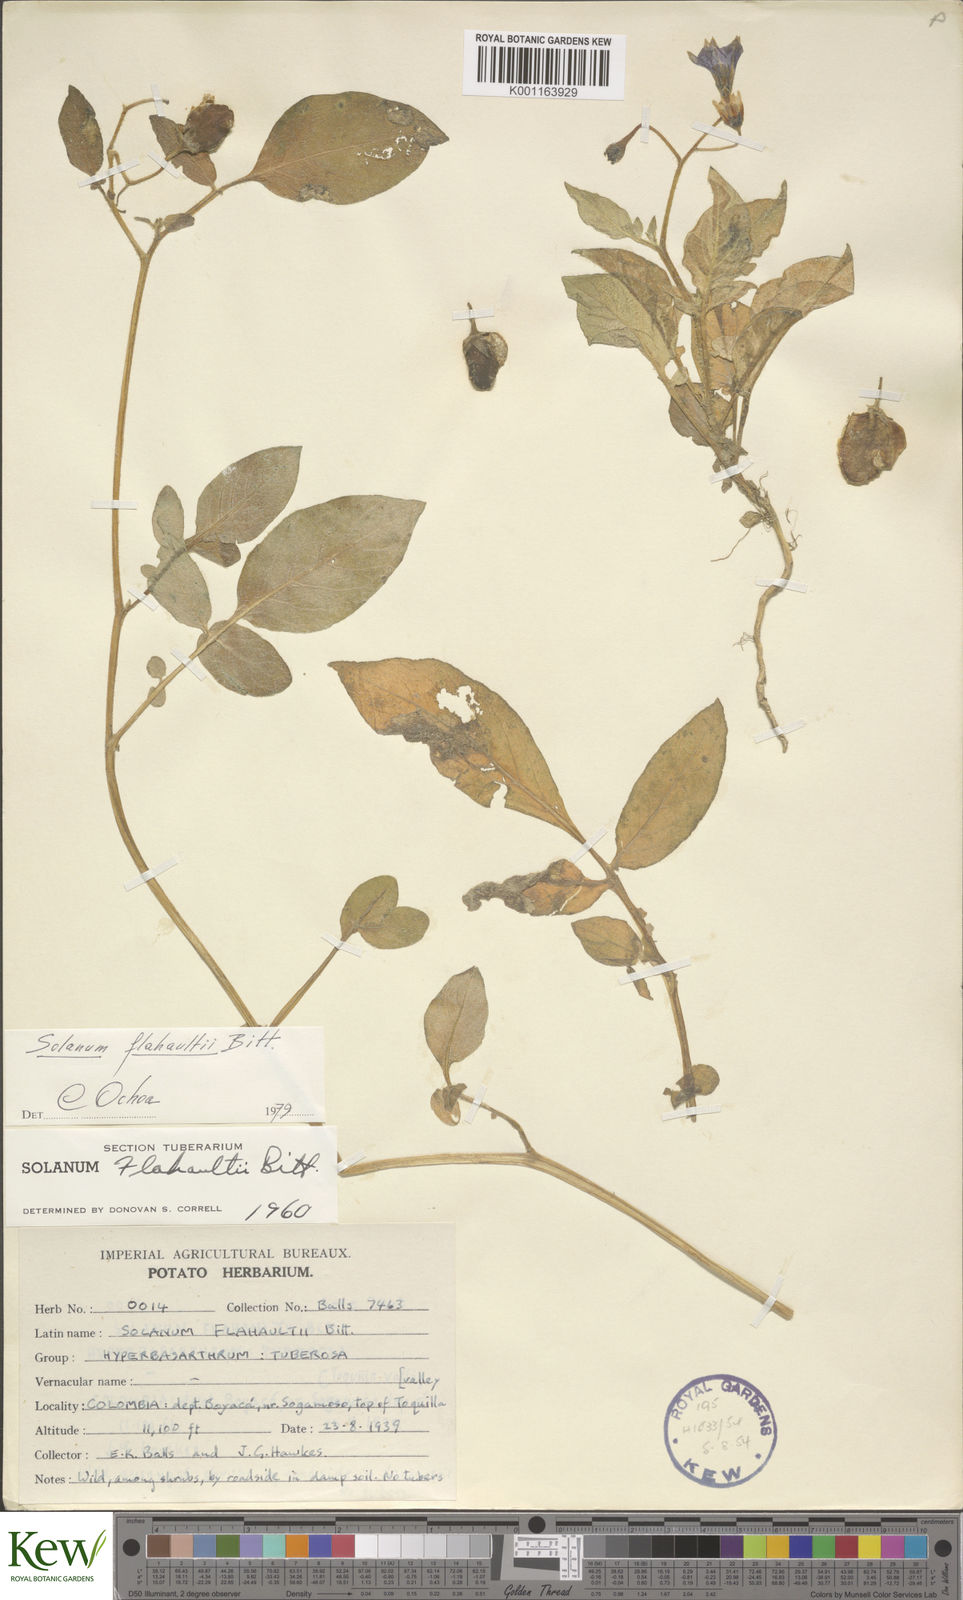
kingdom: Plantae
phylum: Tracheophyta
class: Magnoliopsida
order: Solanales
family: Solanaceae
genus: Solanum
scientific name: Solanum flahaultii
